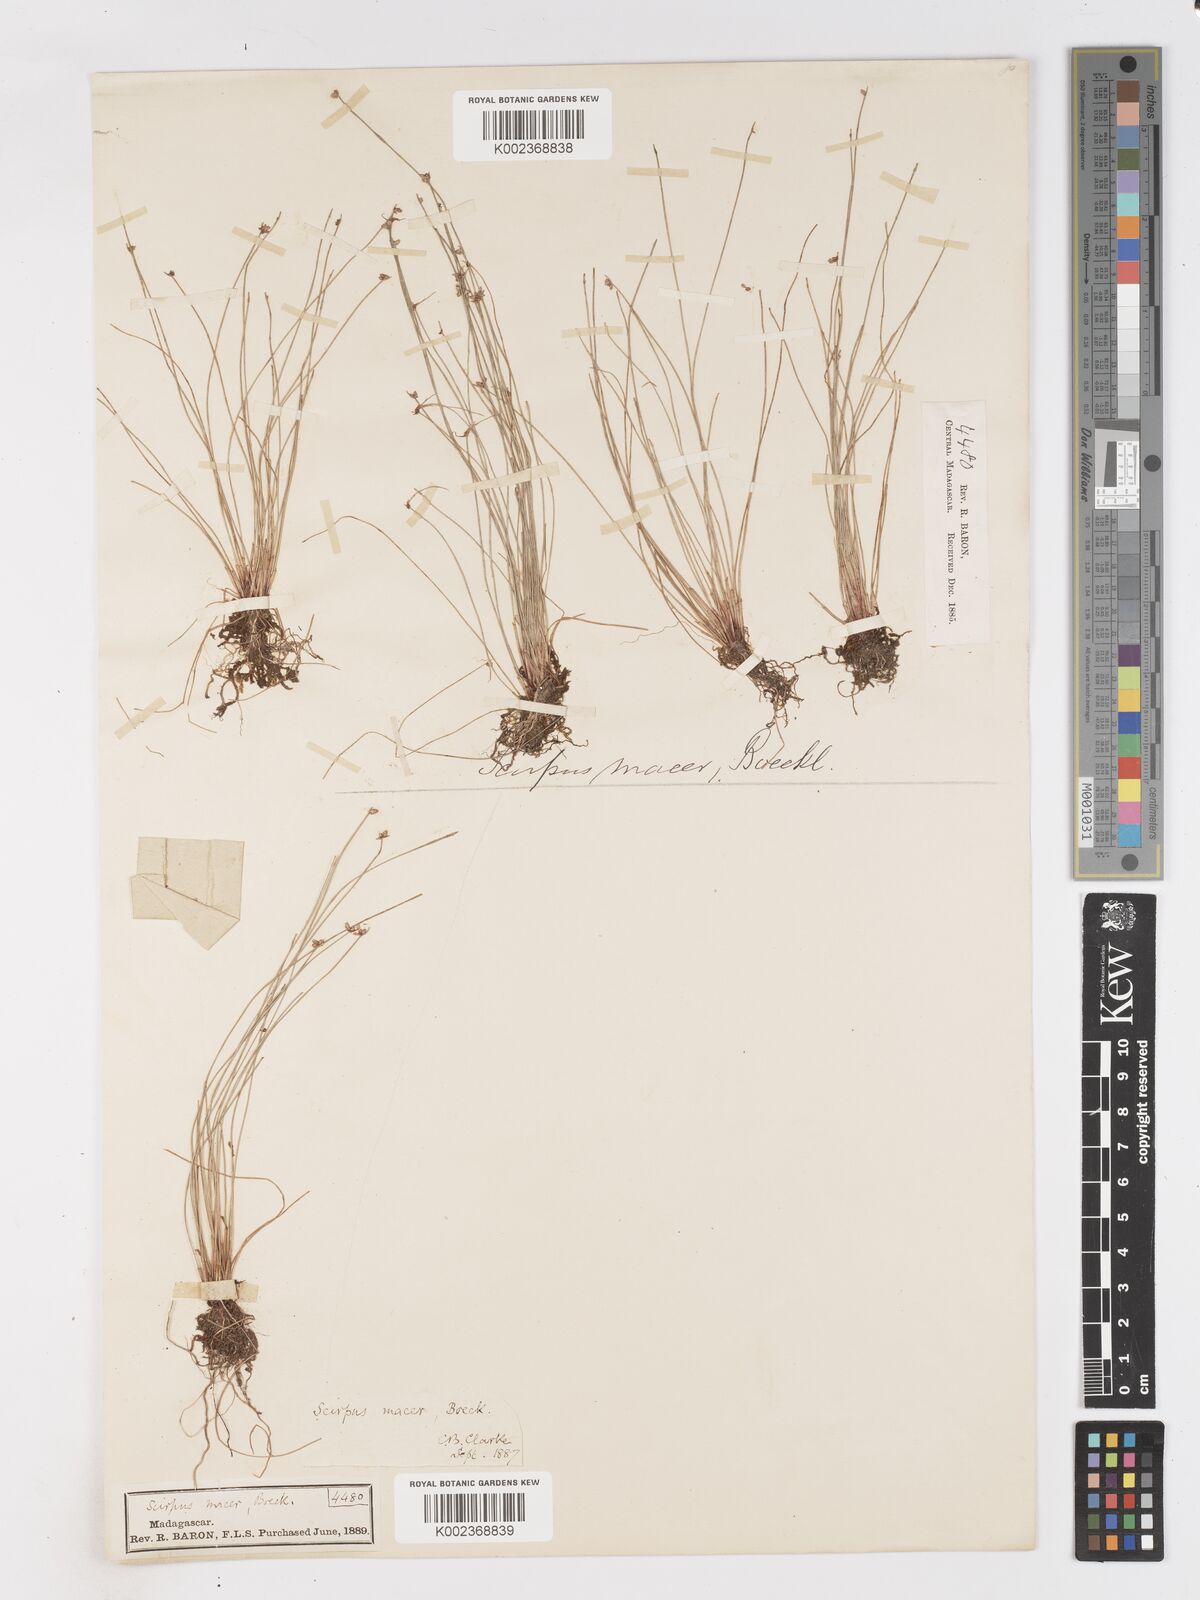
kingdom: Plantae
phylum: Tracheophyta
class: Liliopsida
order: Poales
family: Cyperaceae
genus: Isolepis
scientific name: Isolepis costata
